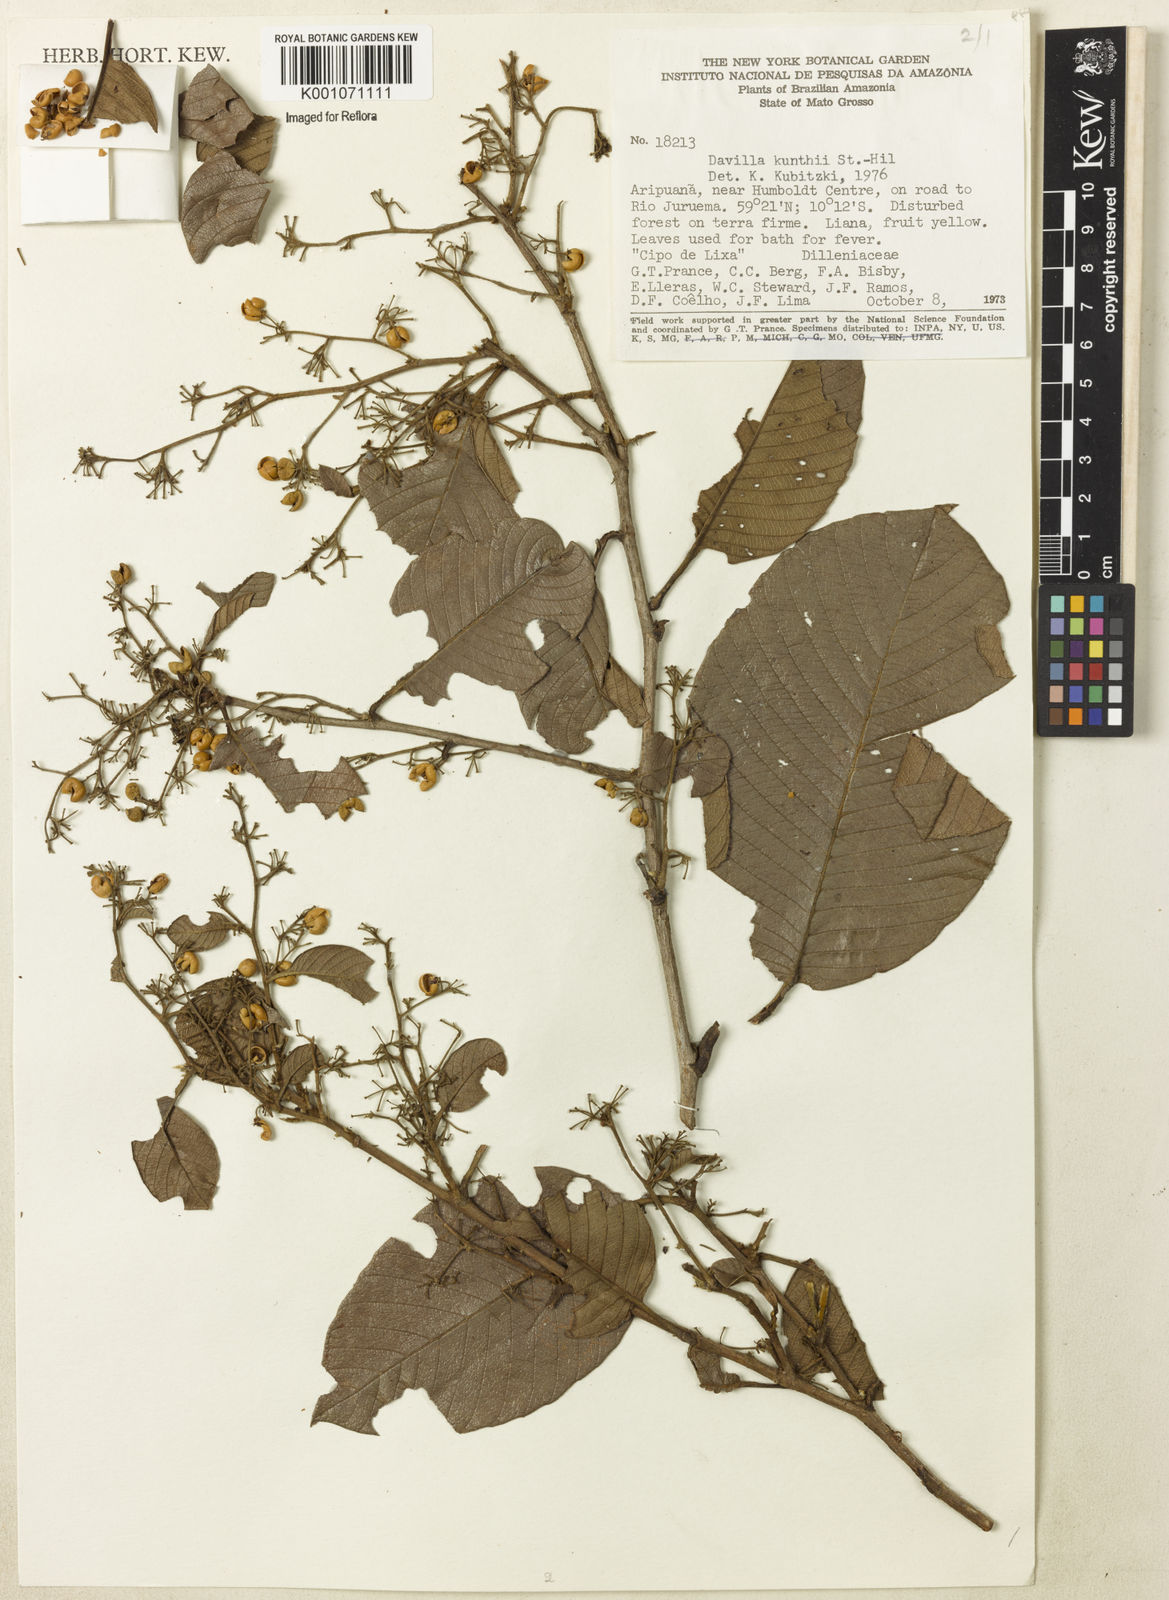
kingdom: Plantae
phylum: Tracheophyta
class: Magnoliopsida
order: Dilleniales
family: Dilleniaceae
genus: Davilla
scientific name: Davilla
